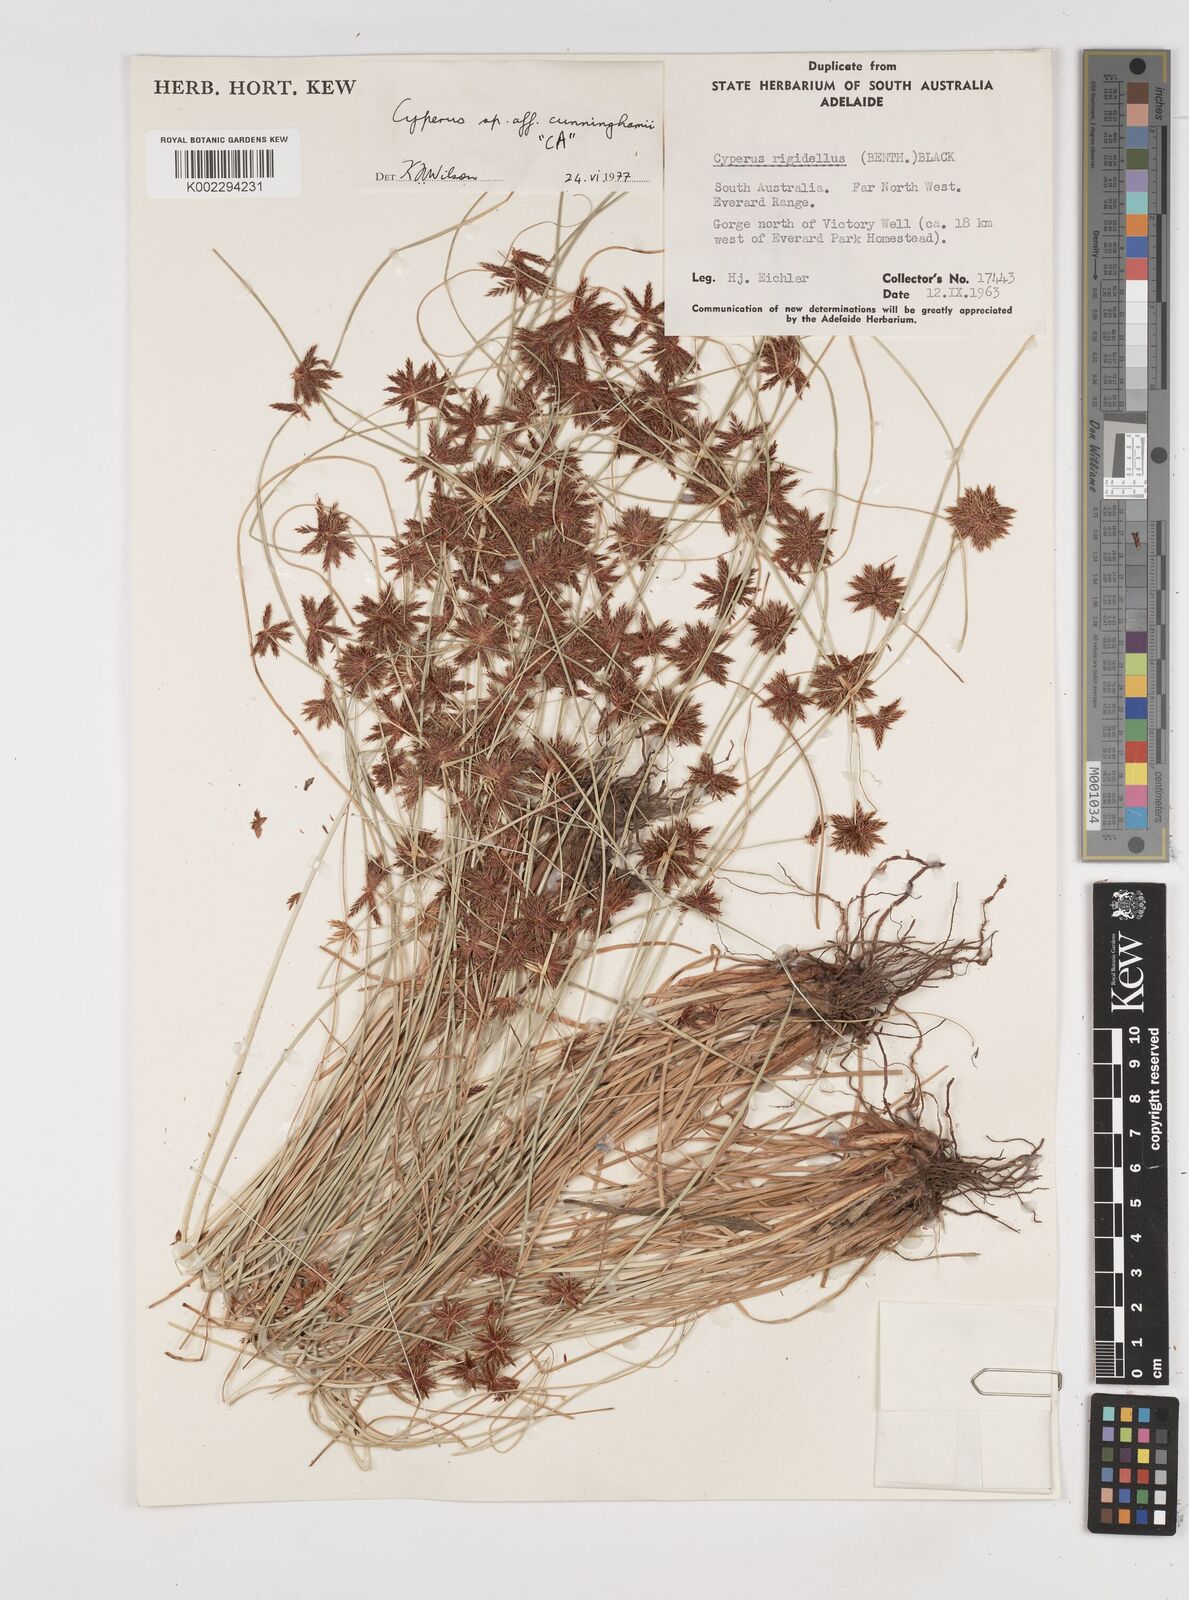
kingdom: Plantae
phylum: Tracheophyta
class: Liliopsida
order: Poales
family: Cyperaceae
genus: Cyperus
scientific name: Cyperus cunninghamii
